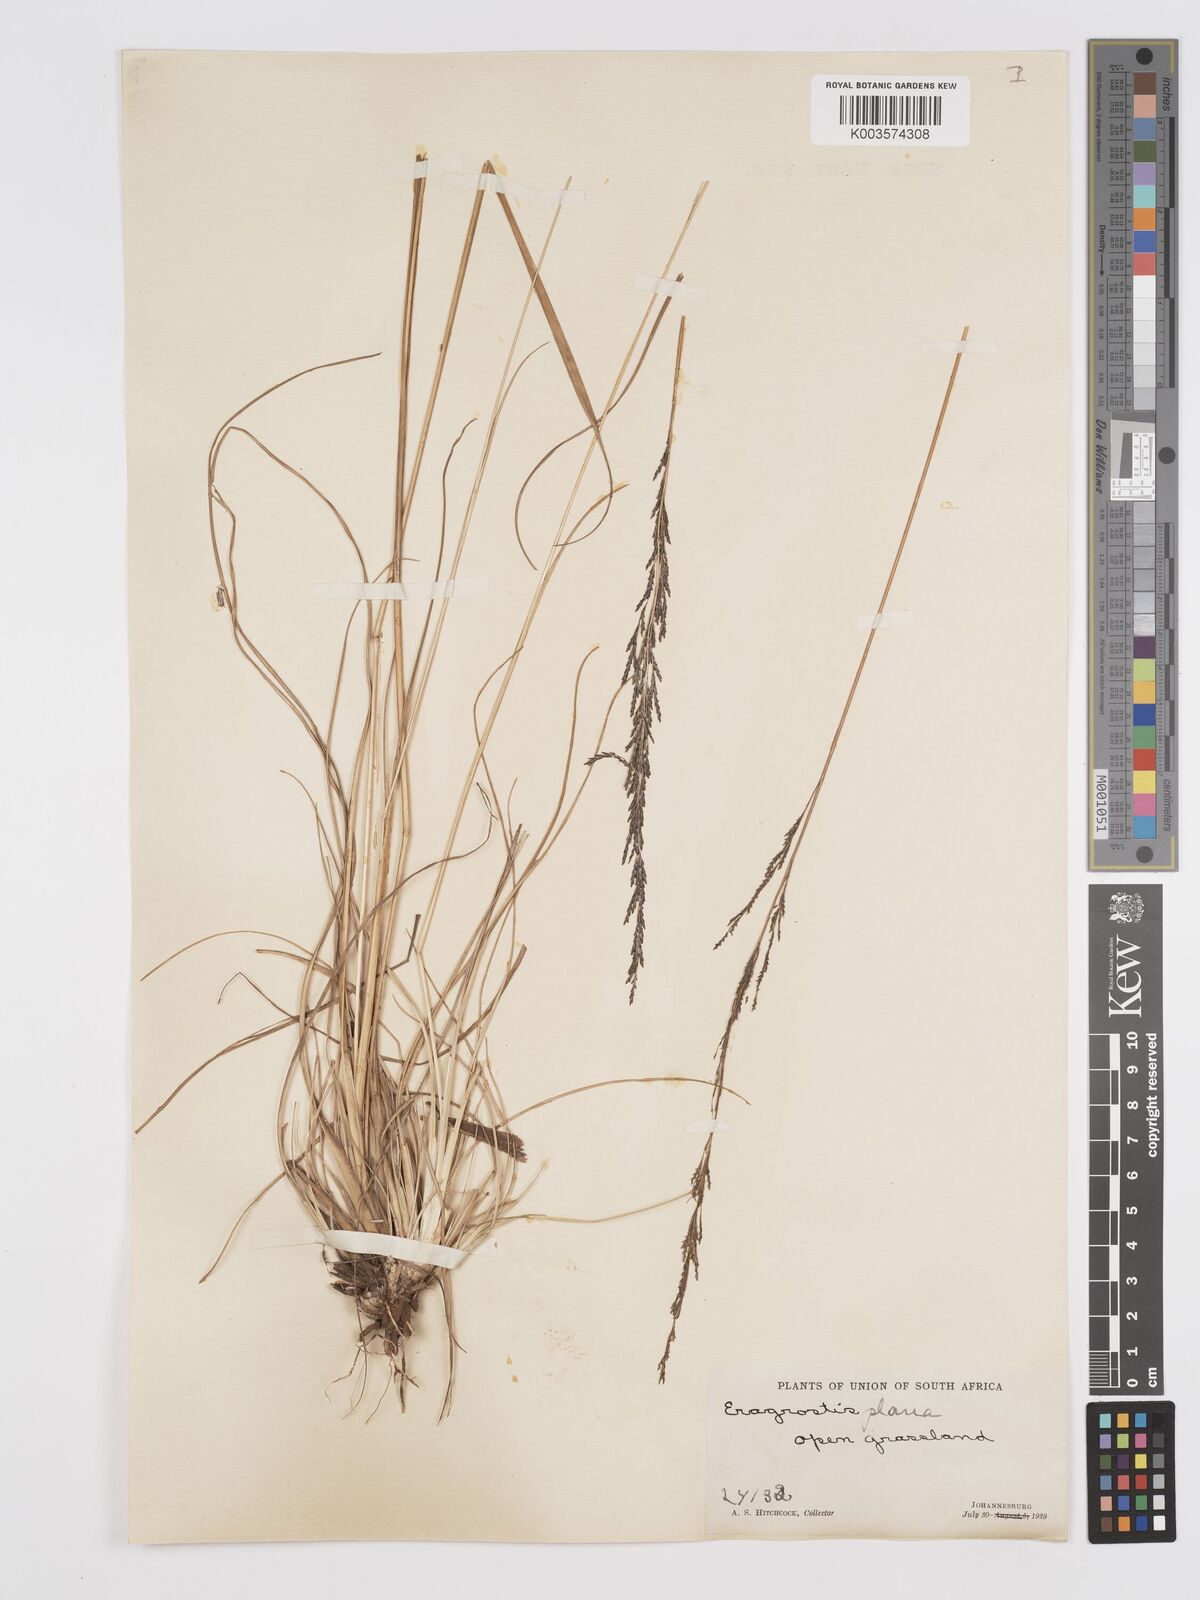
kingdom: Plantae
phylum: Tracheophyta
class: Liliopsida
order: Poales
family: Poaceae
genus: Eragrostis
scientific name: Eragrostis plana
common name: South african lovegrass
